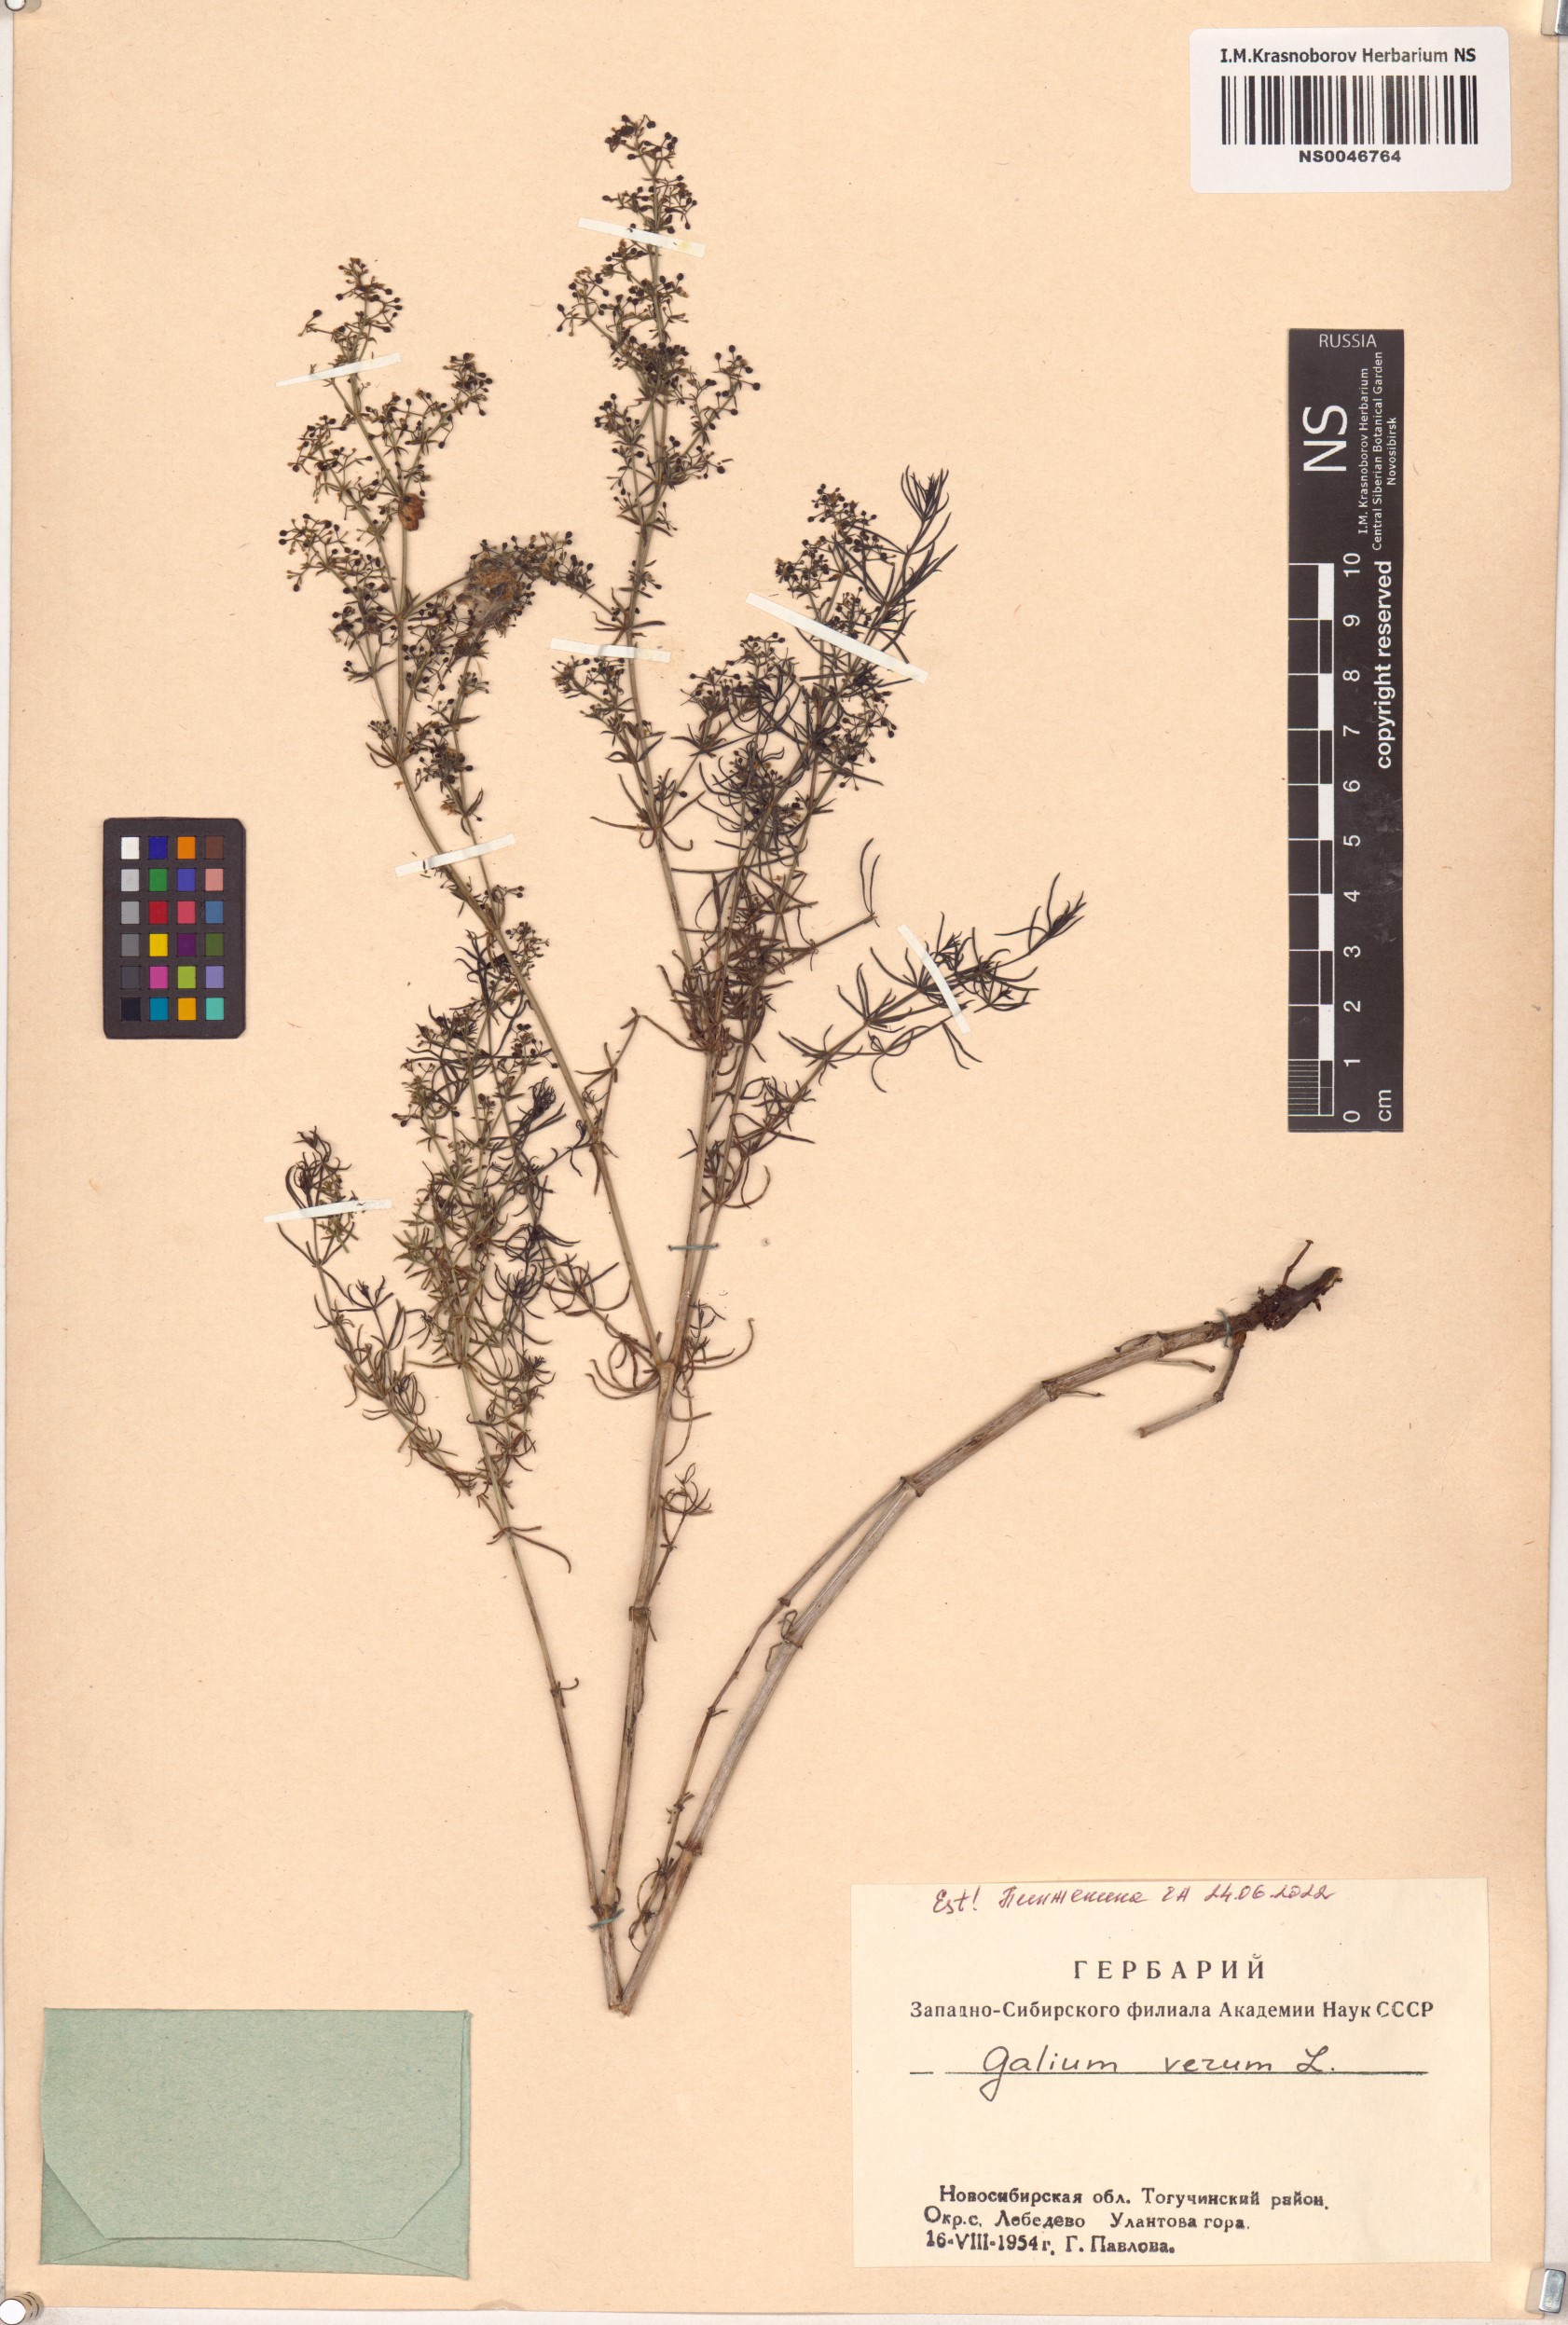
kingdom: Plantae
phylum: Tracheophyta
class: Magnoliopsida
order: Gentianales
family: Rubiaceae
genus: Galium
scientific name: Galium verum
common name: Lady's bedstraw
